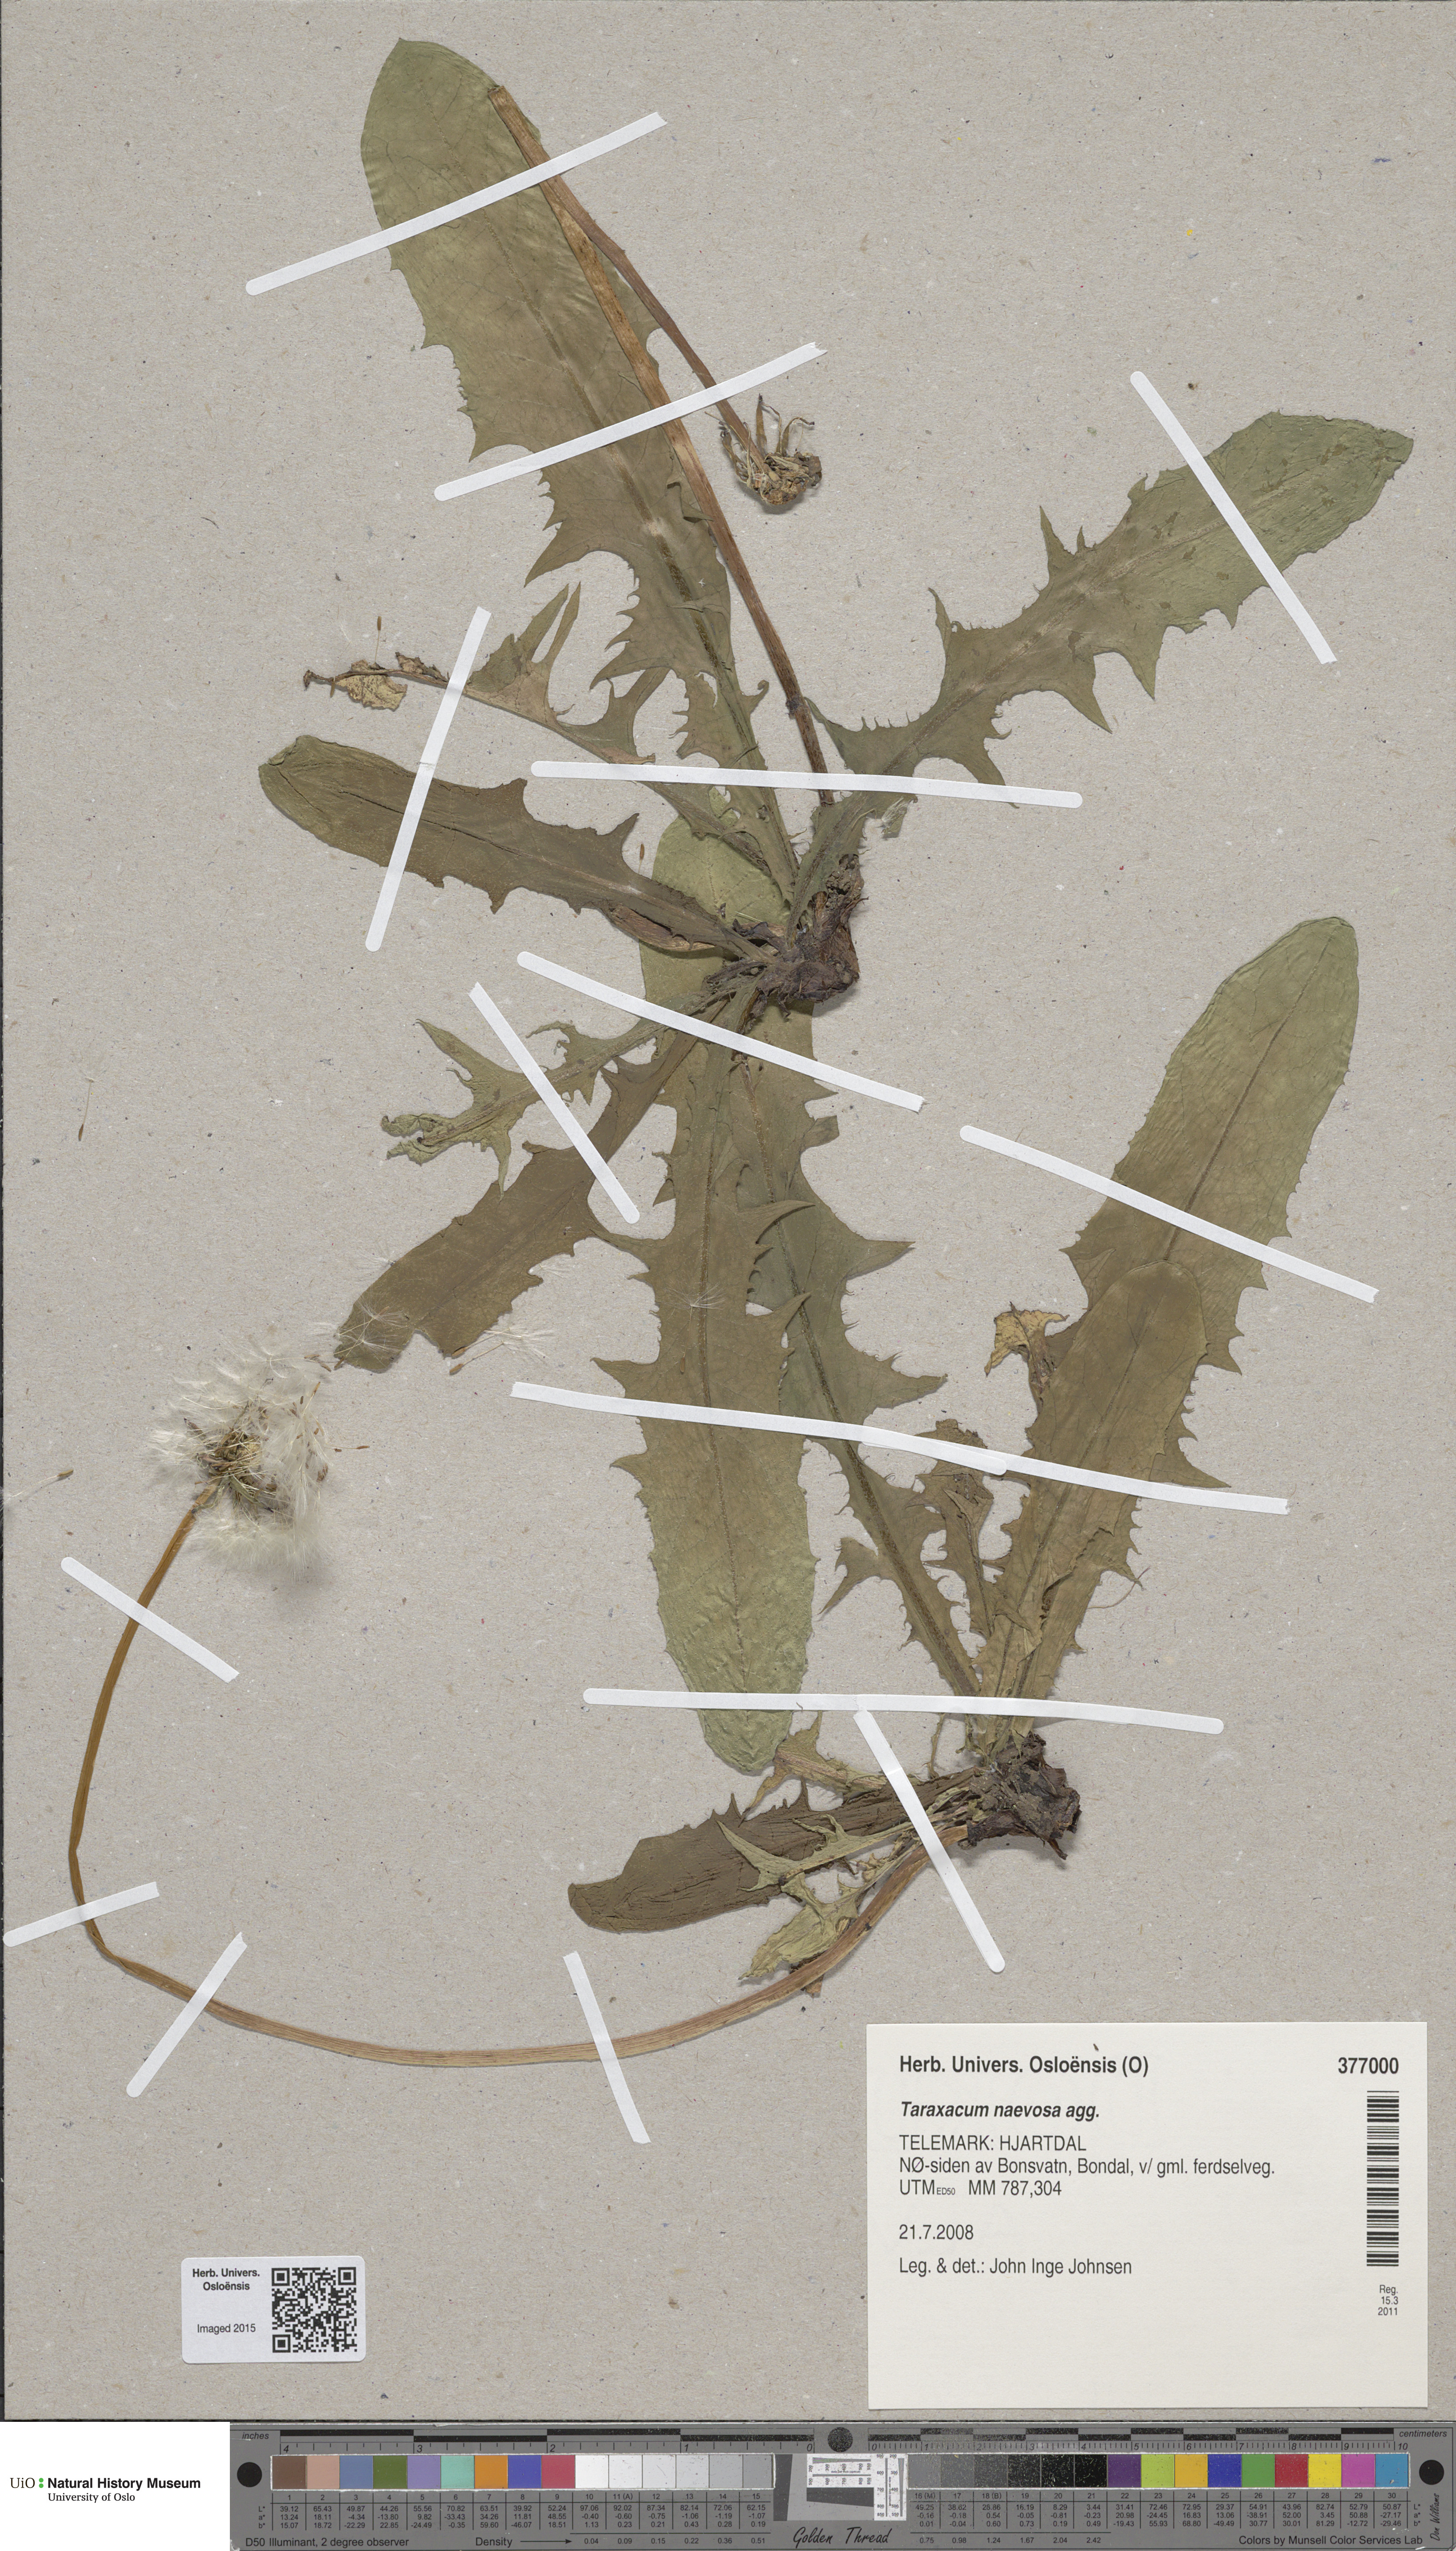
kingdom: Plantae
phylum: Tracheophyta
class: Magnoliopsida
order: Asterales
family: Asteraceae
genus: Taraxacum
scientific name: Taraxacum naevosum
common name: Squat dandelion
